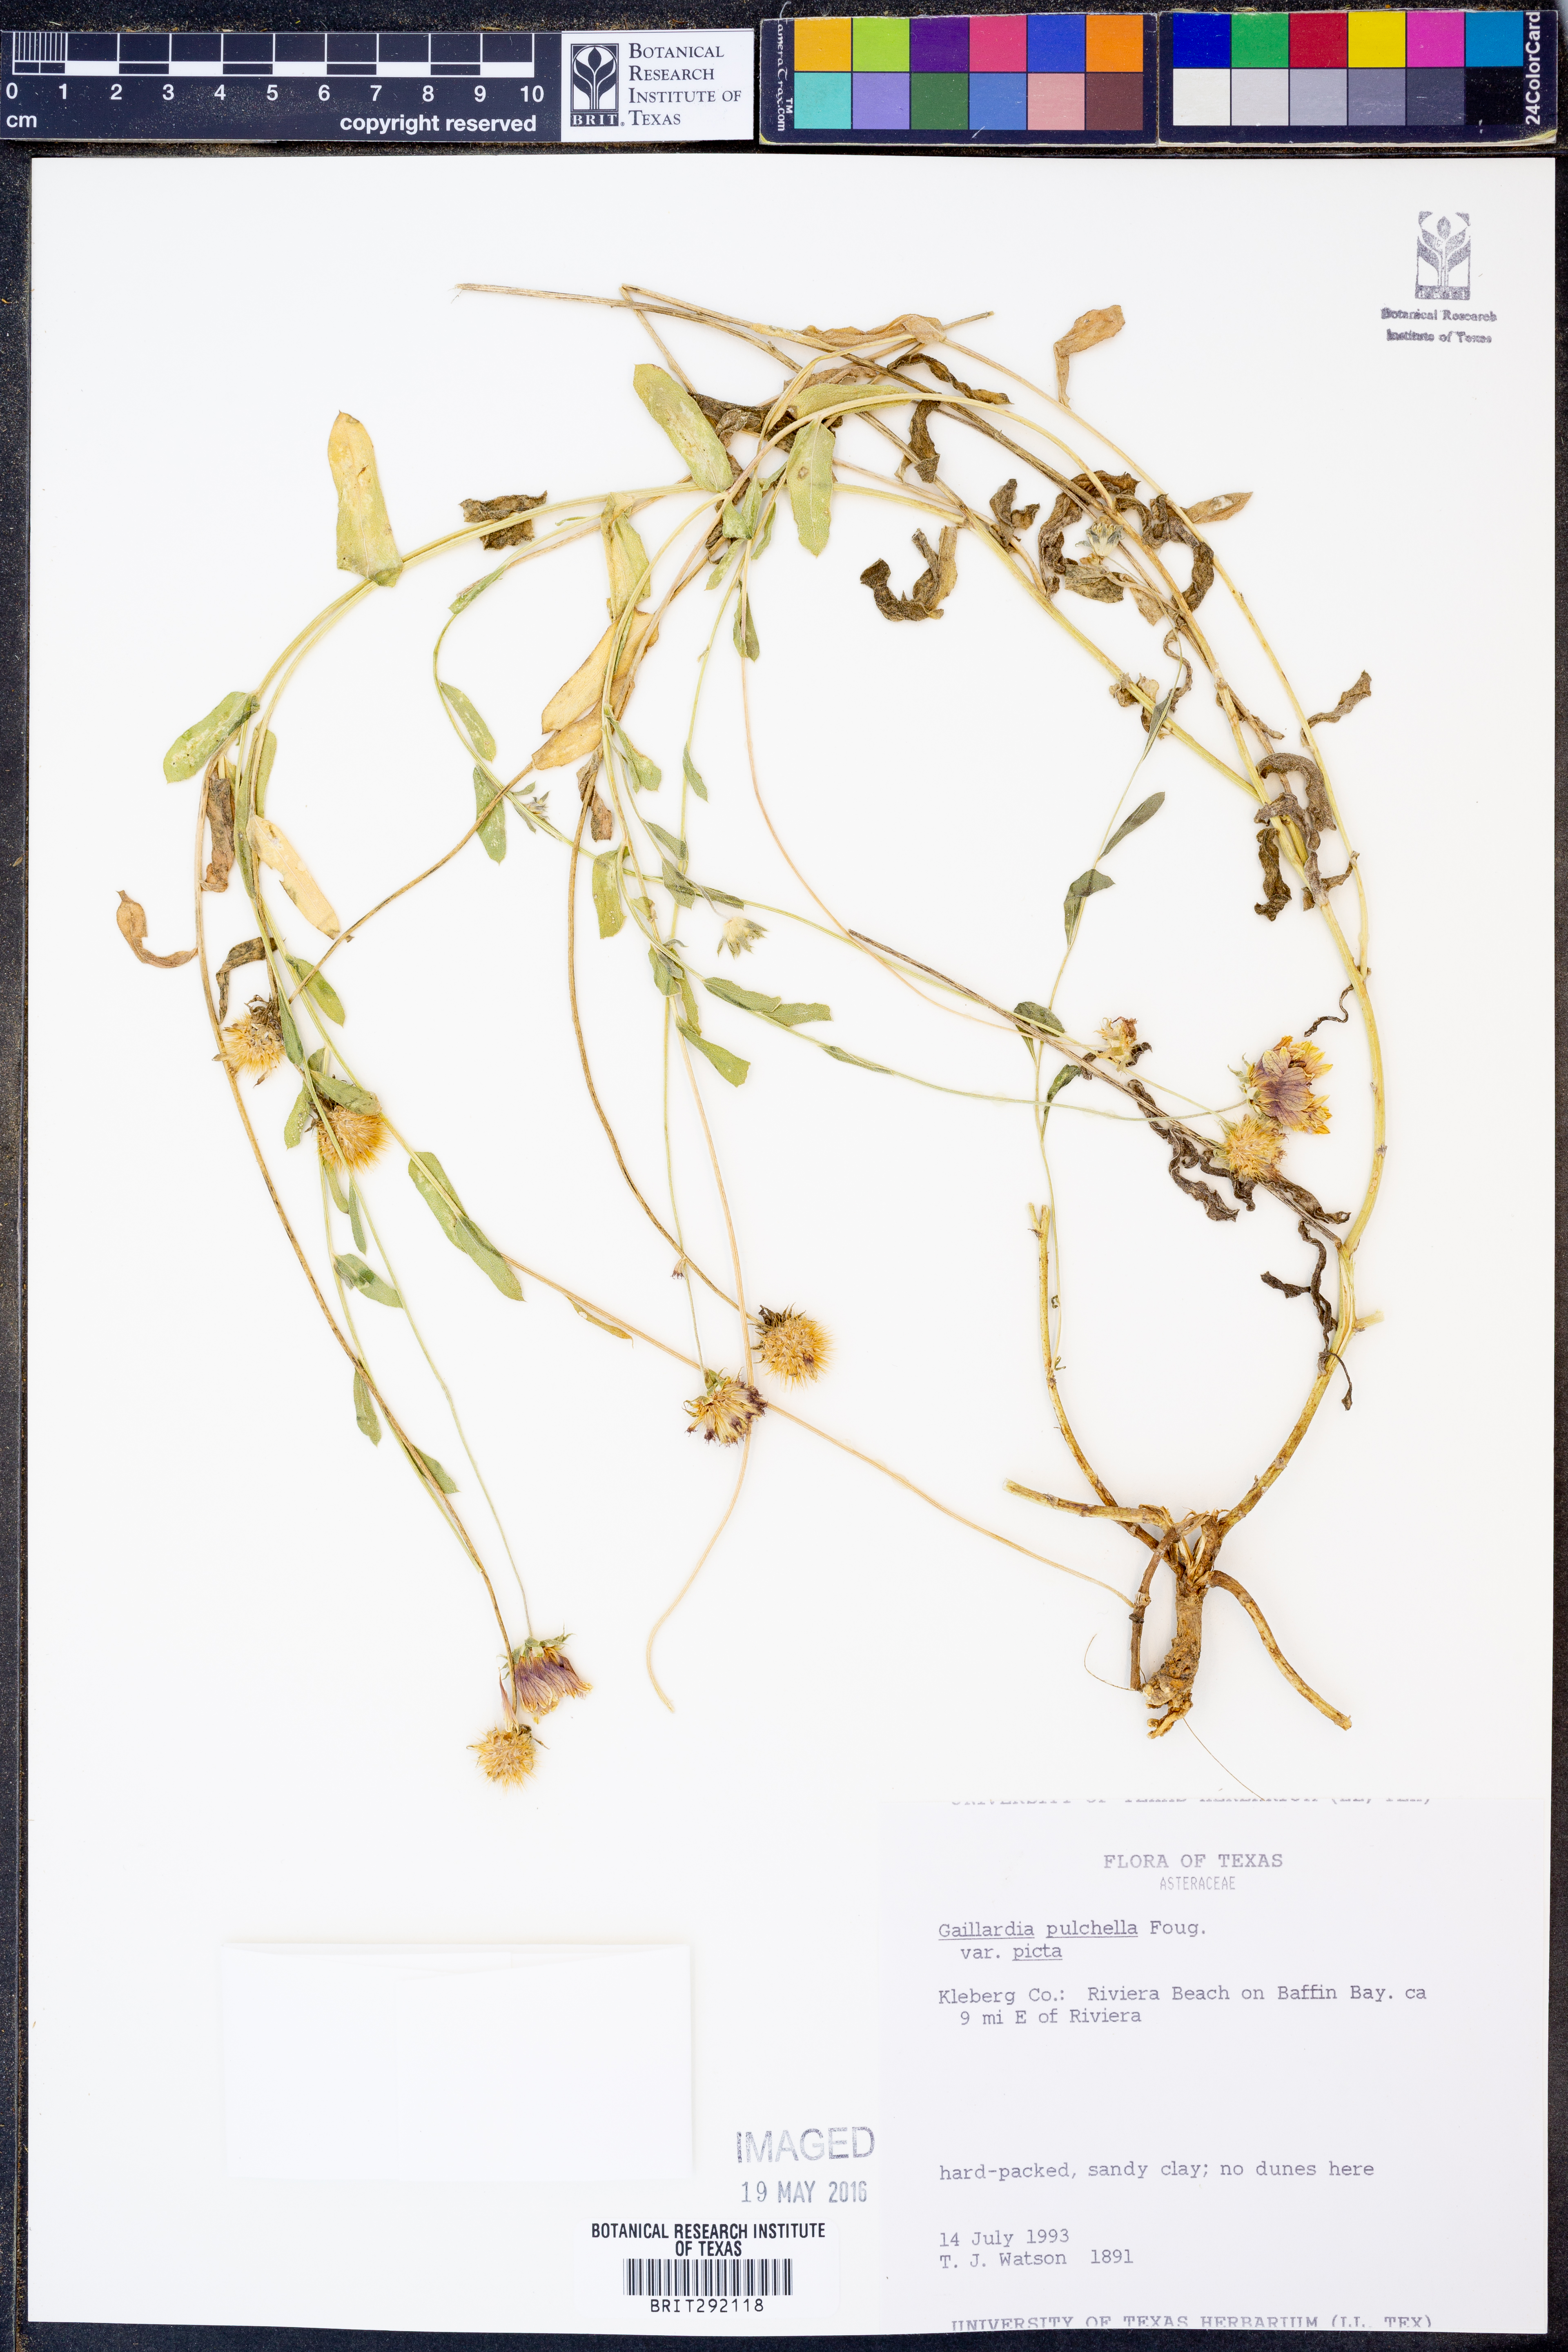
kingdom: Plantae
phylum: Tracheophyta
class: Magnoliopsida
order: Asterales
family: Asteraceae
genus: Gaillardia
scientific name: Gaillardia pulchella
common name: Firewheel
